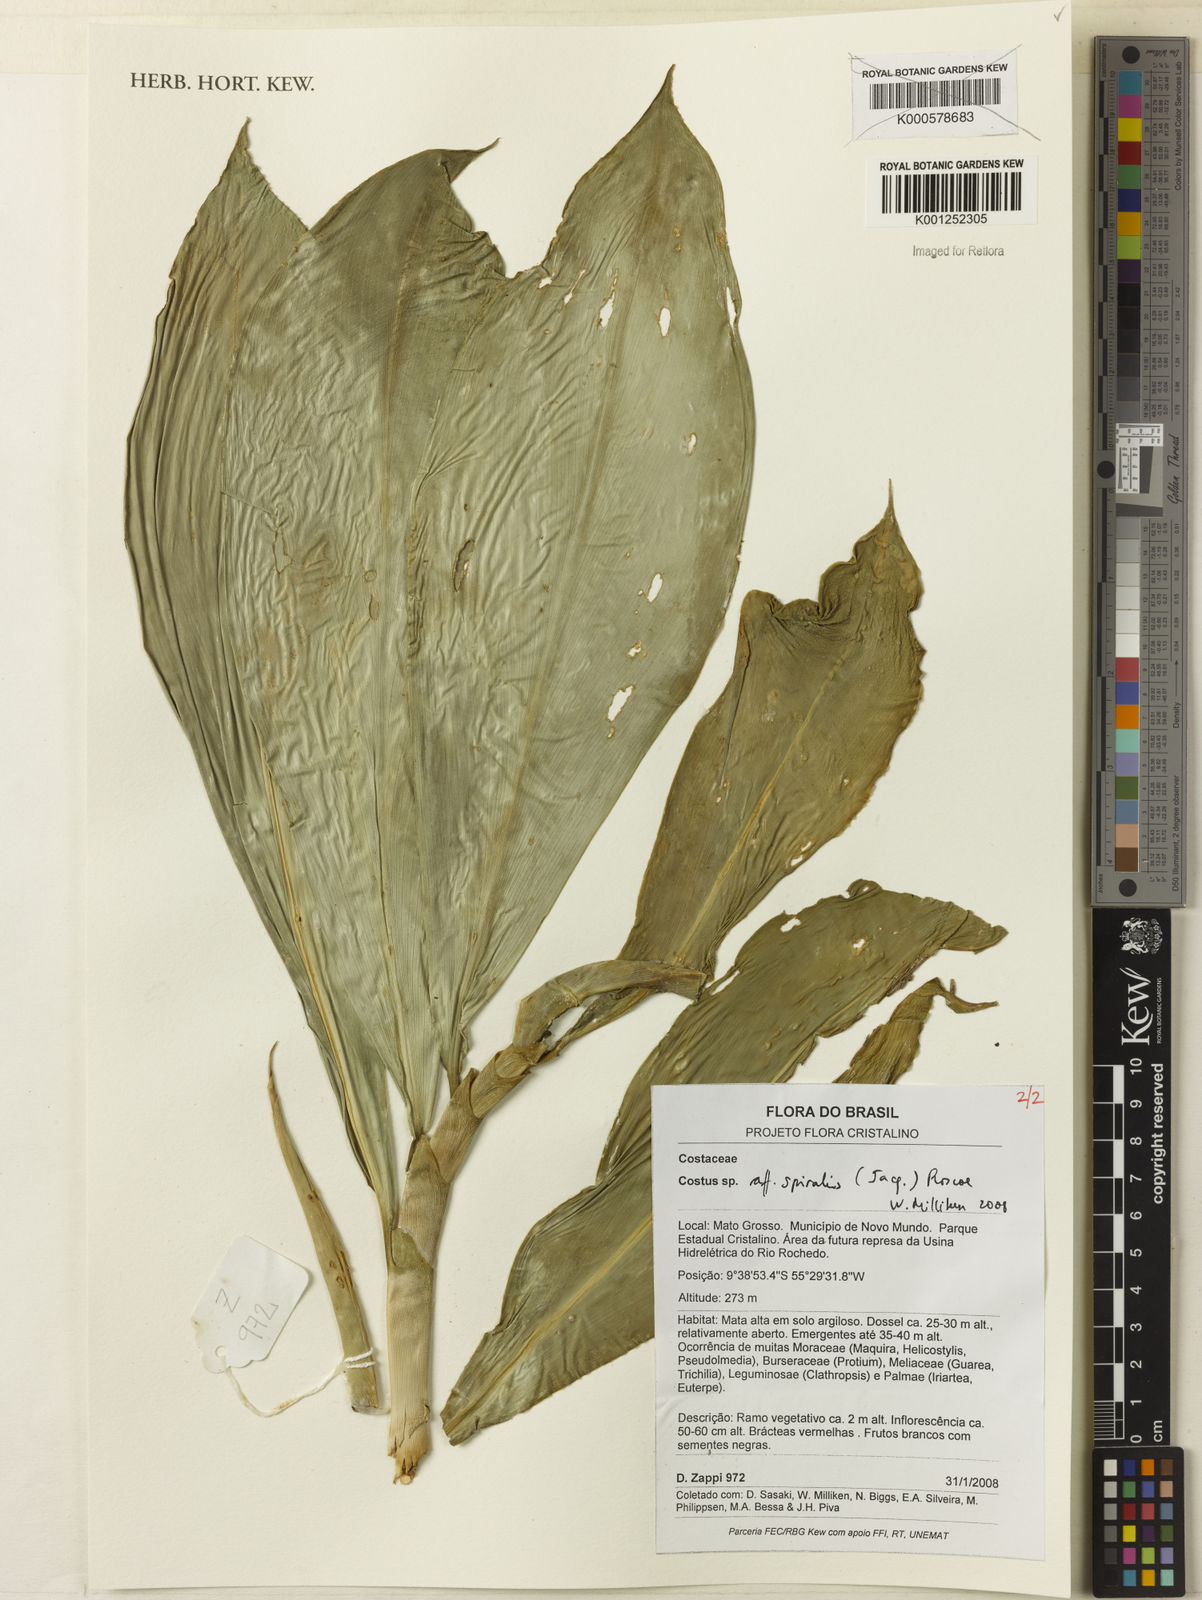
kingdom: Plantae
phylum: Tracheophyta
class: Liliopsida
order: Zingiberales
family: Costaceae
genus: Costus
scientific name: Costus spiralis
